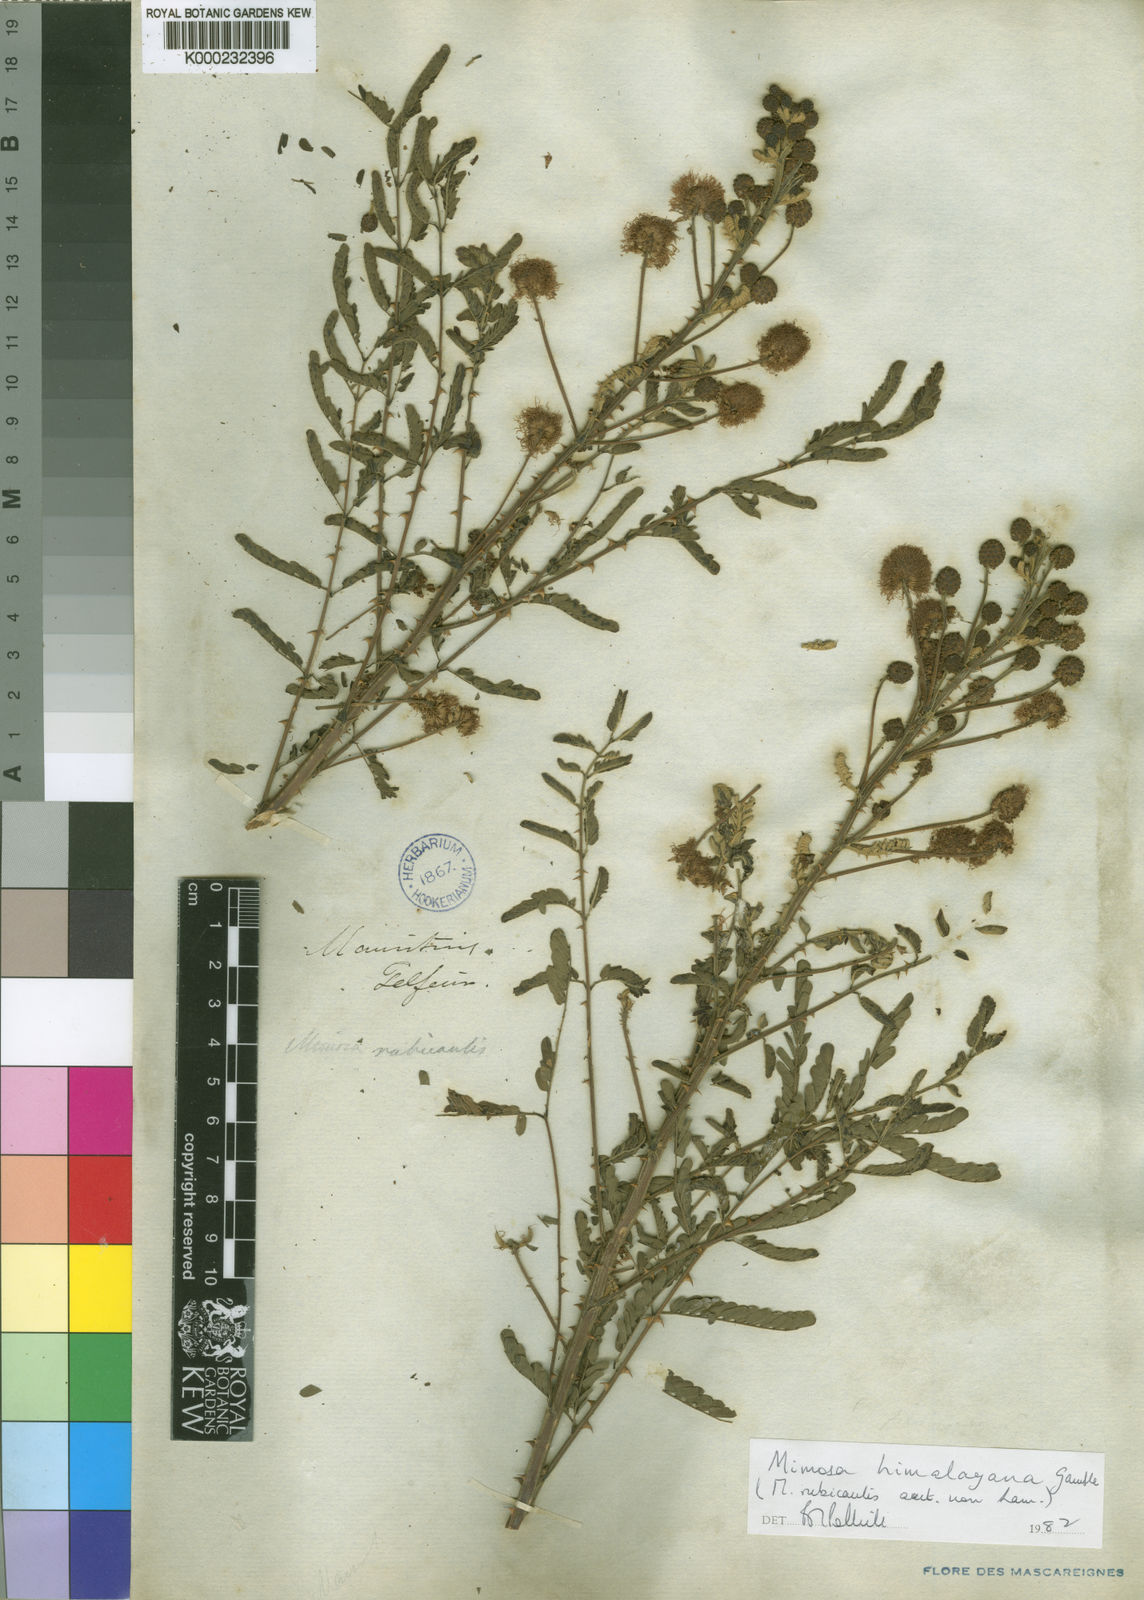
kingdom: Plantae
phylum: Tracheophyta
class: Magnoliopsida
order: Fabales
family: Fabaceae
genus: Mimosa
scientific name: Mimosa rubicaulis
